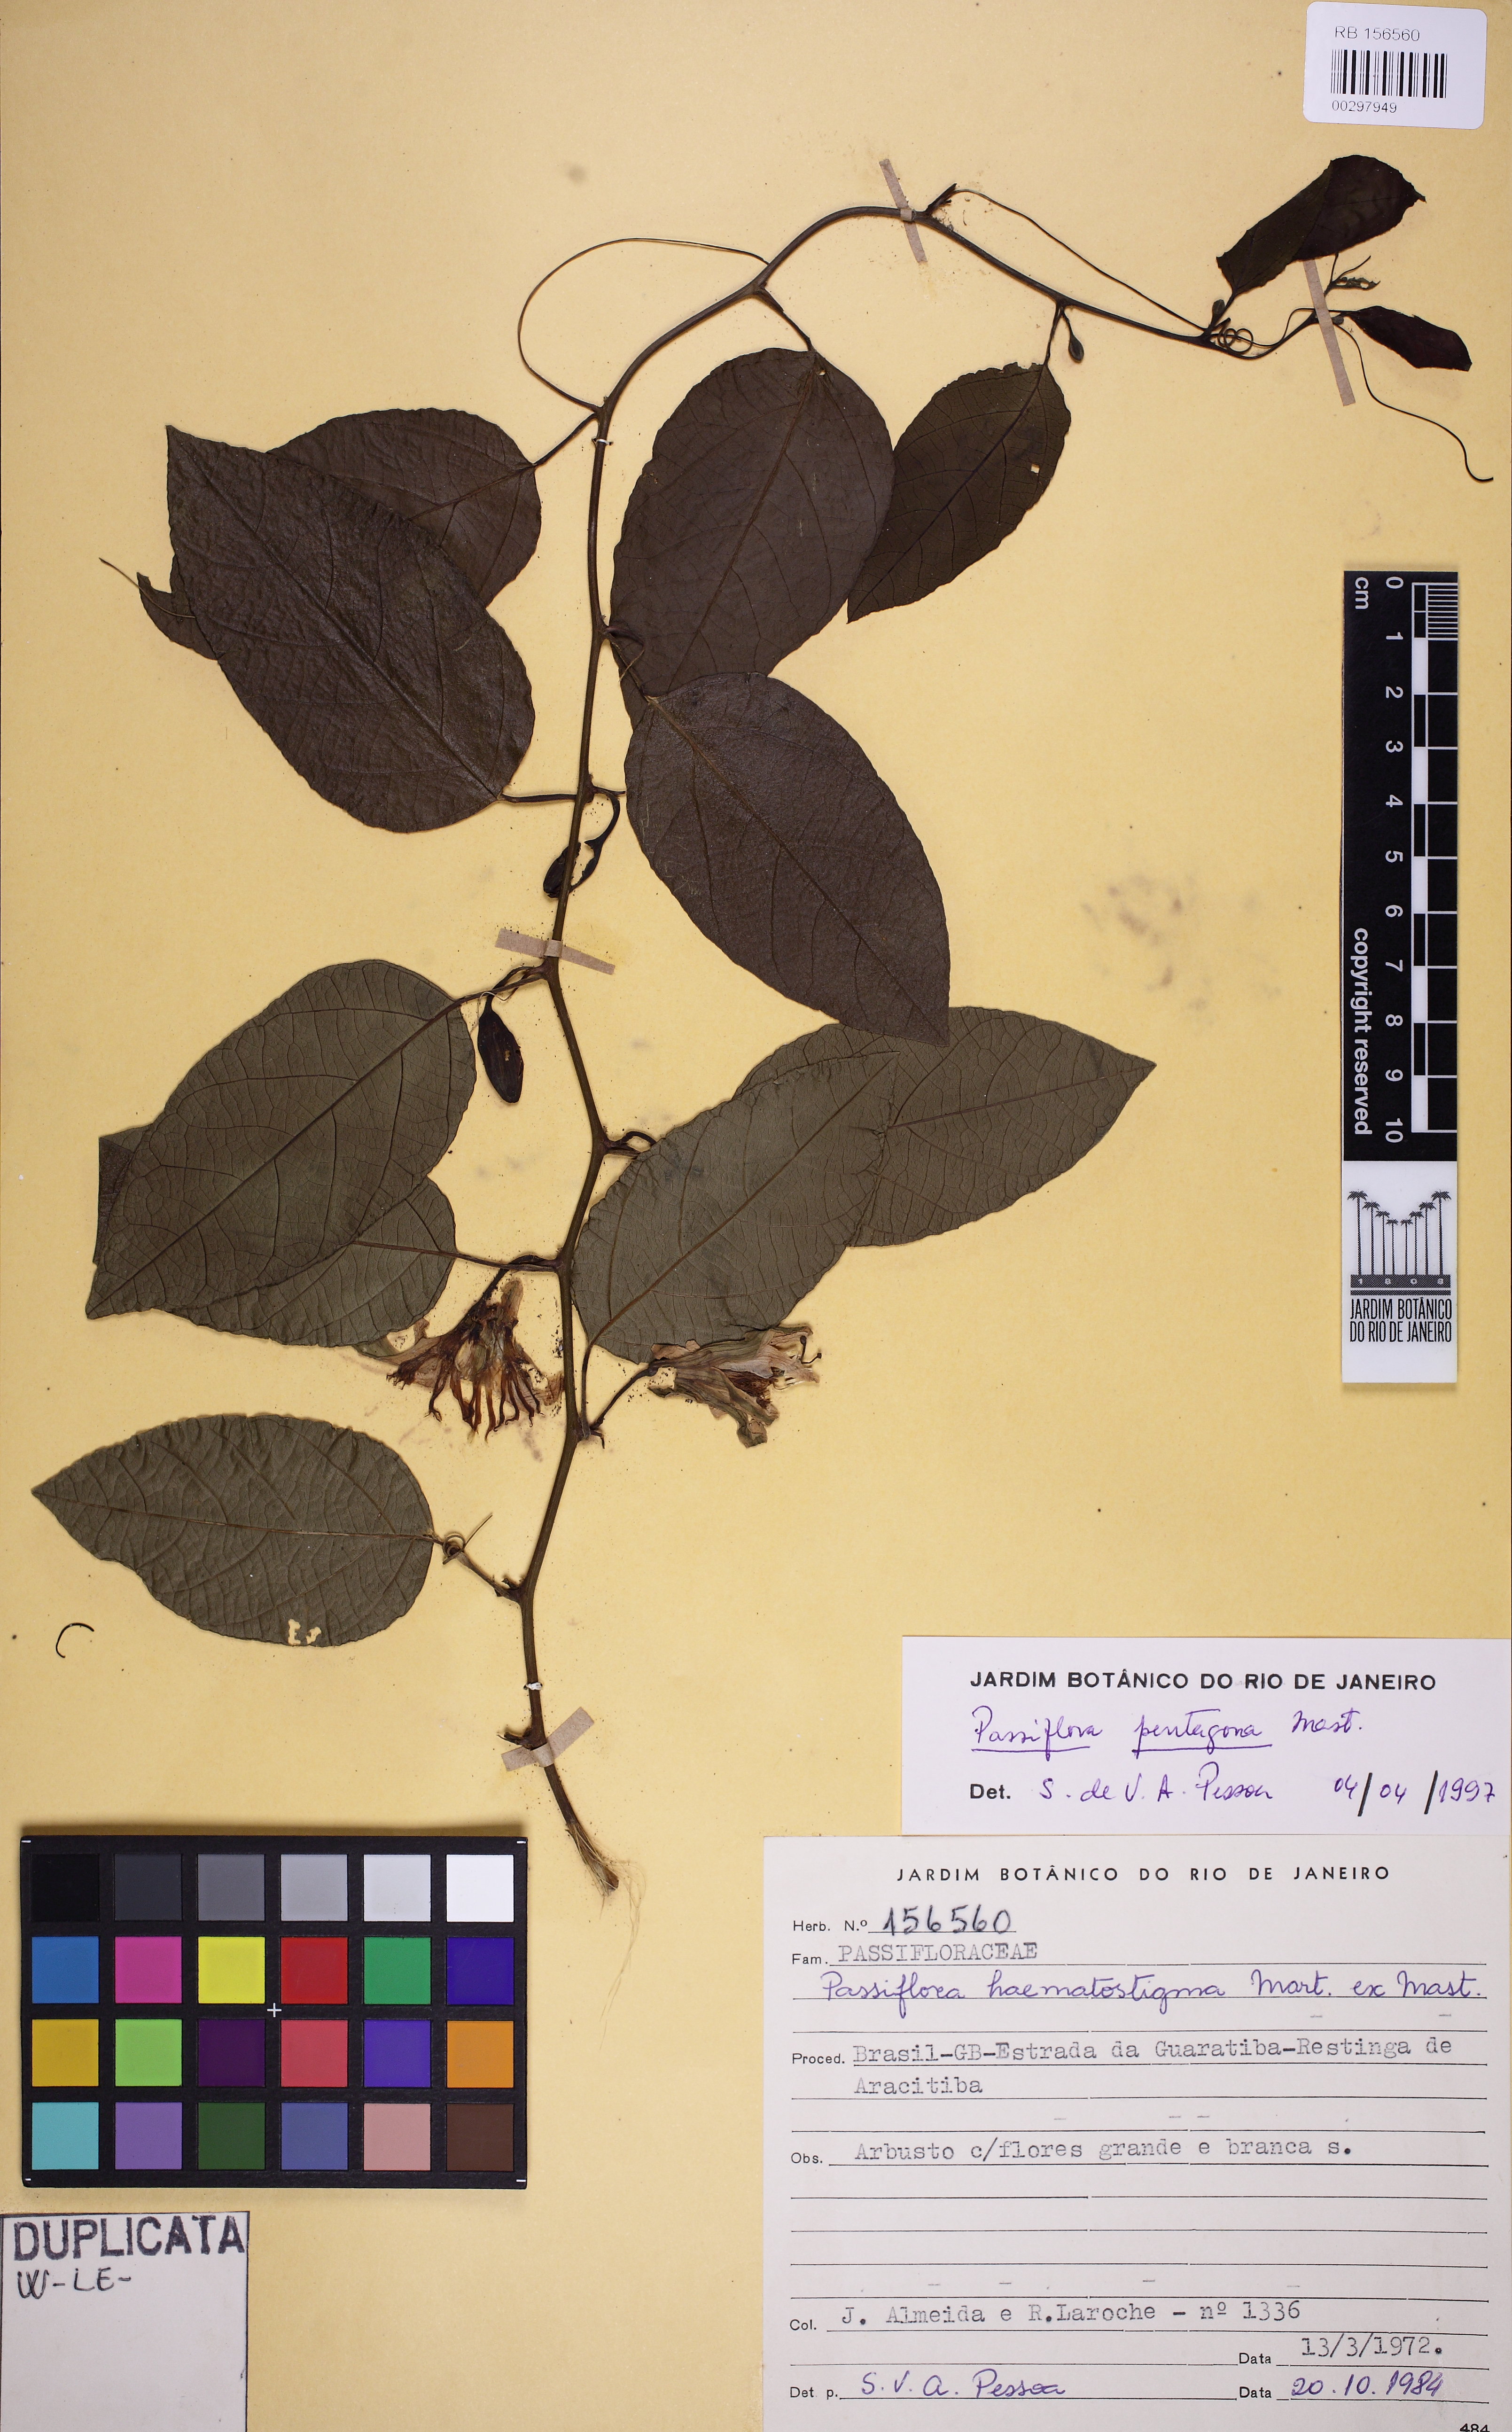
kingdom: Plantae
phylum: Tracheophyta
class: Magnoliopsida
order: Malpighiales
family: Passifloraceae
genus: Passiflora
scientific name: Passiflora pentagona
